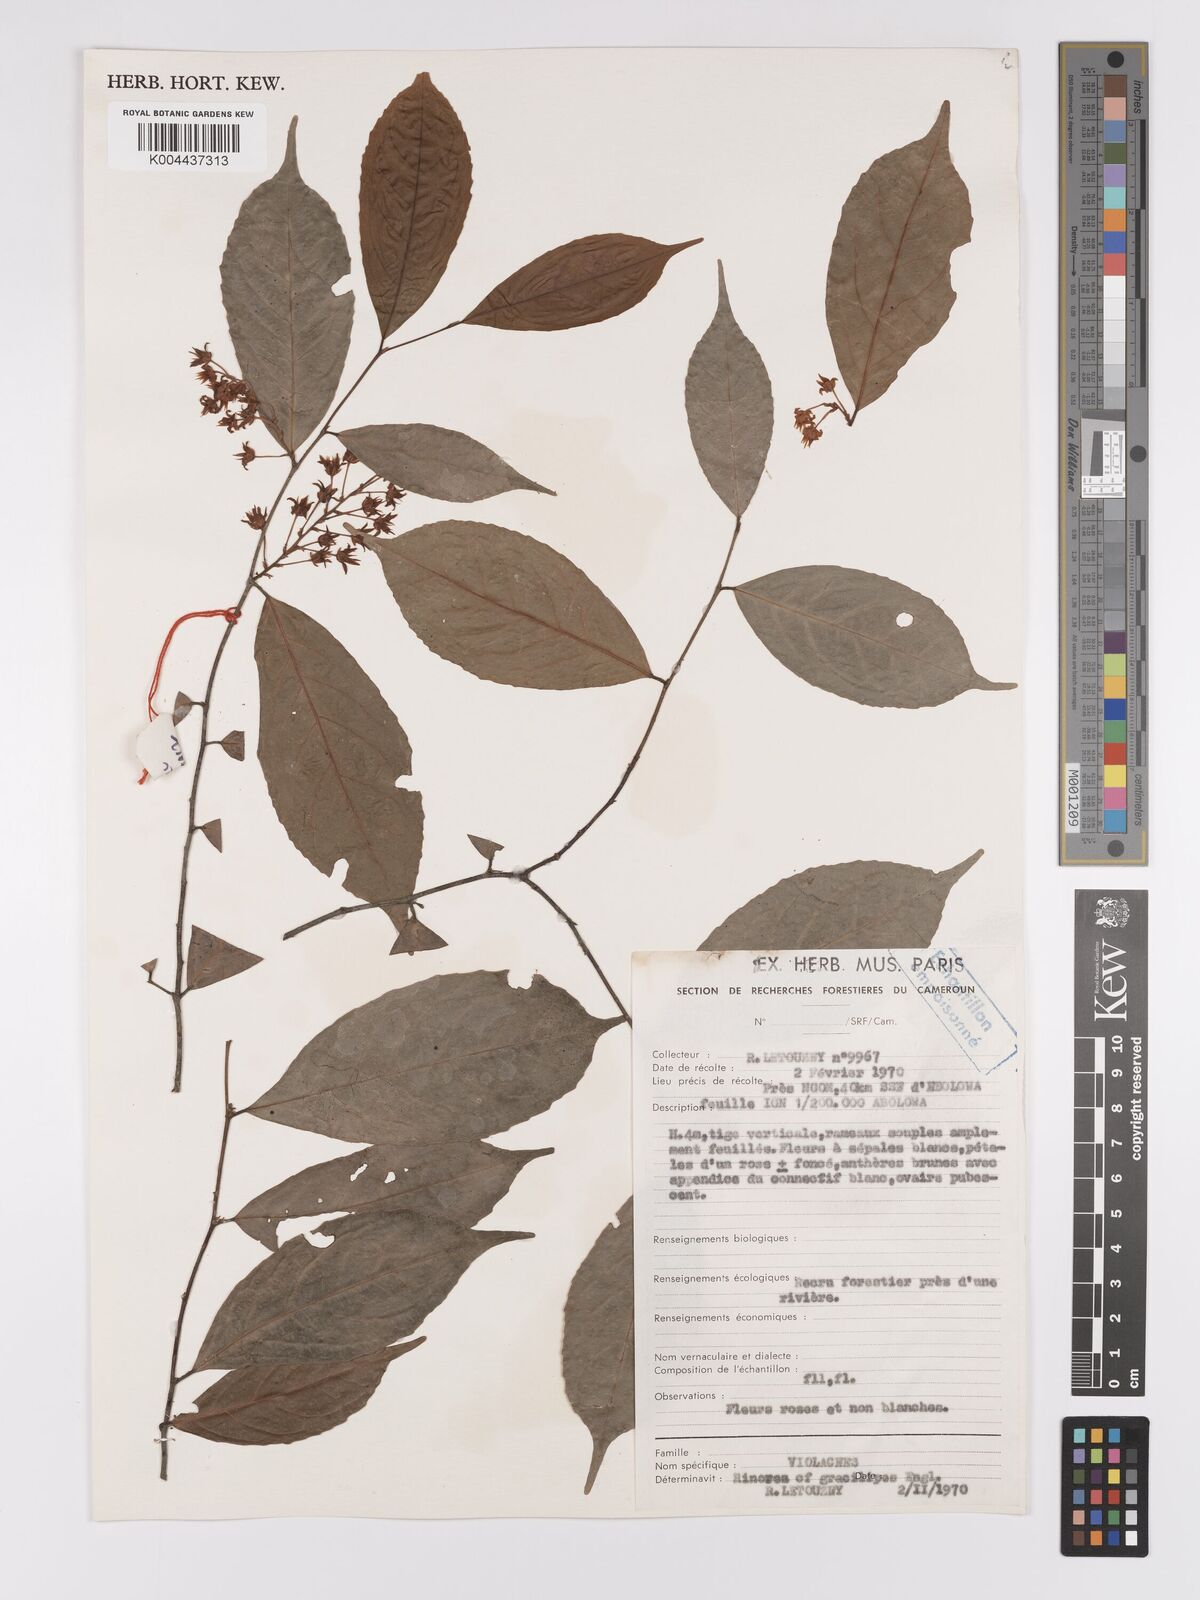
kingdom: Plantae
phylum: Tracheophyta
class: Magnoliopsida
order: Malpighiales
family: Violaceae
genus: Rinorea
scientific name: Rinorea angustifolia
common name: White violet-bush
